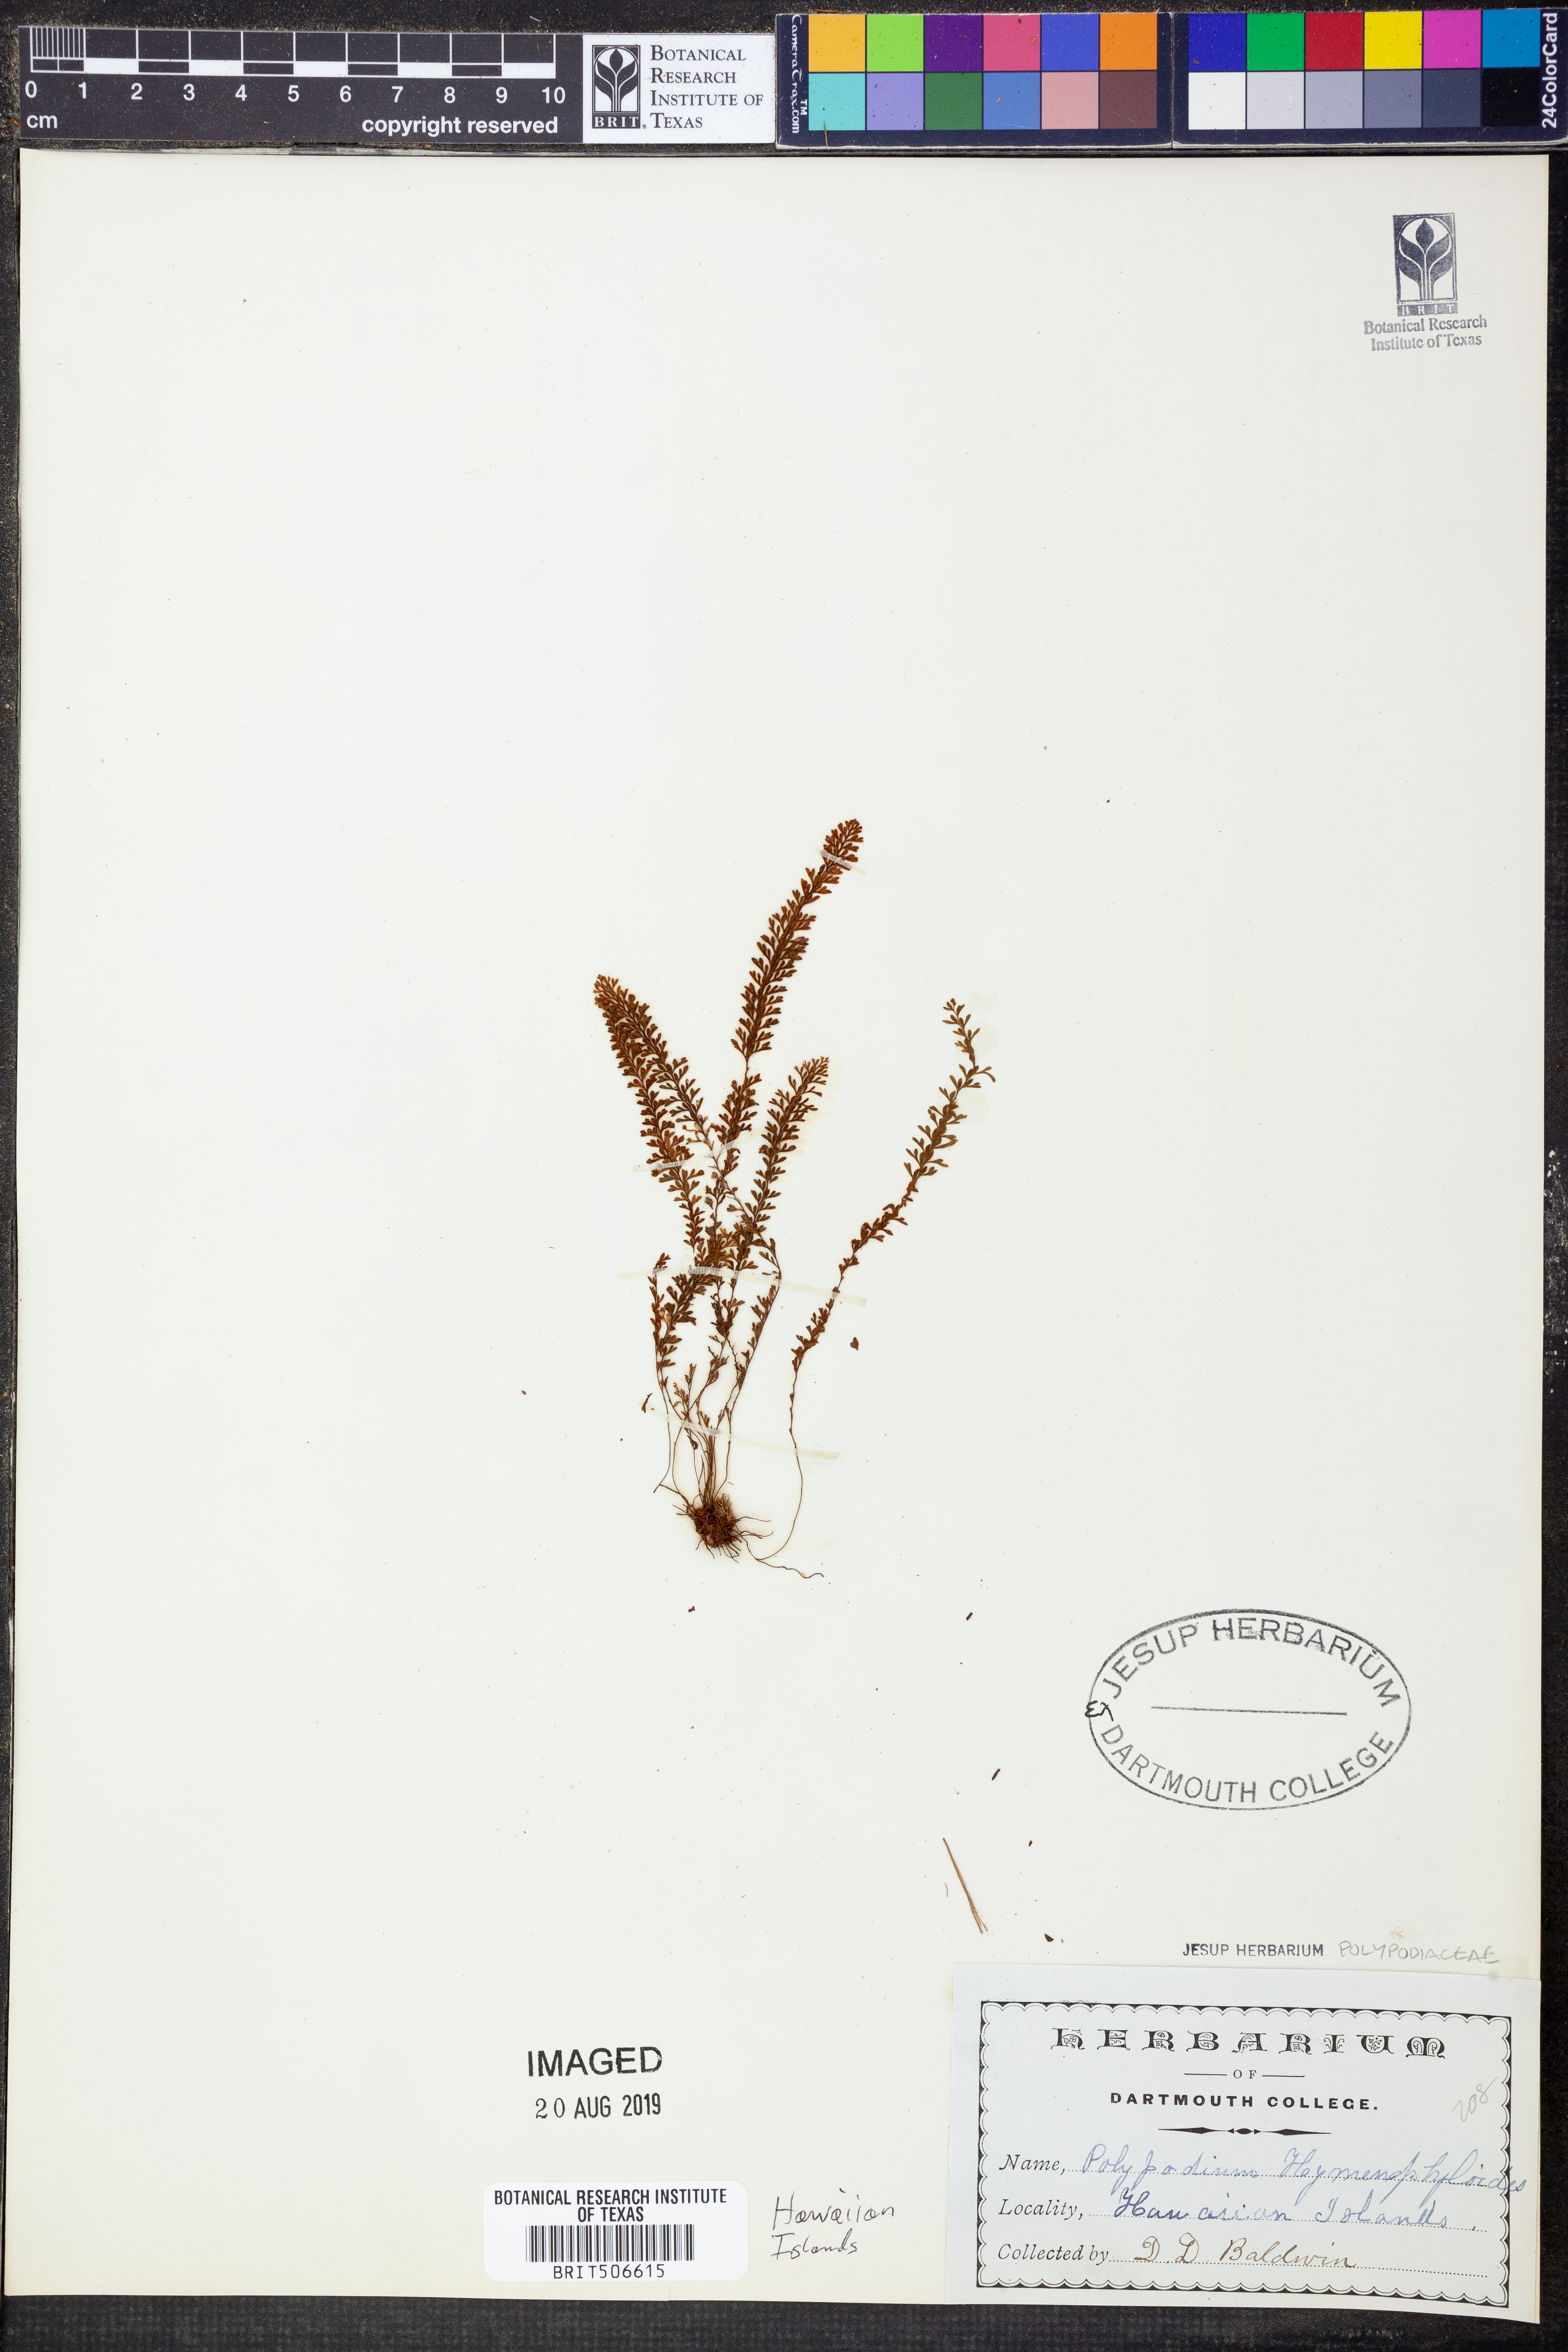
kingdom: Plantae
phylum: Tracheophyta
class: Polypodiopsida
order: Polypodiales
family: Polypodiaceae
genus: Adenophorus
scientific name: Adenophorus hymenophylloides
